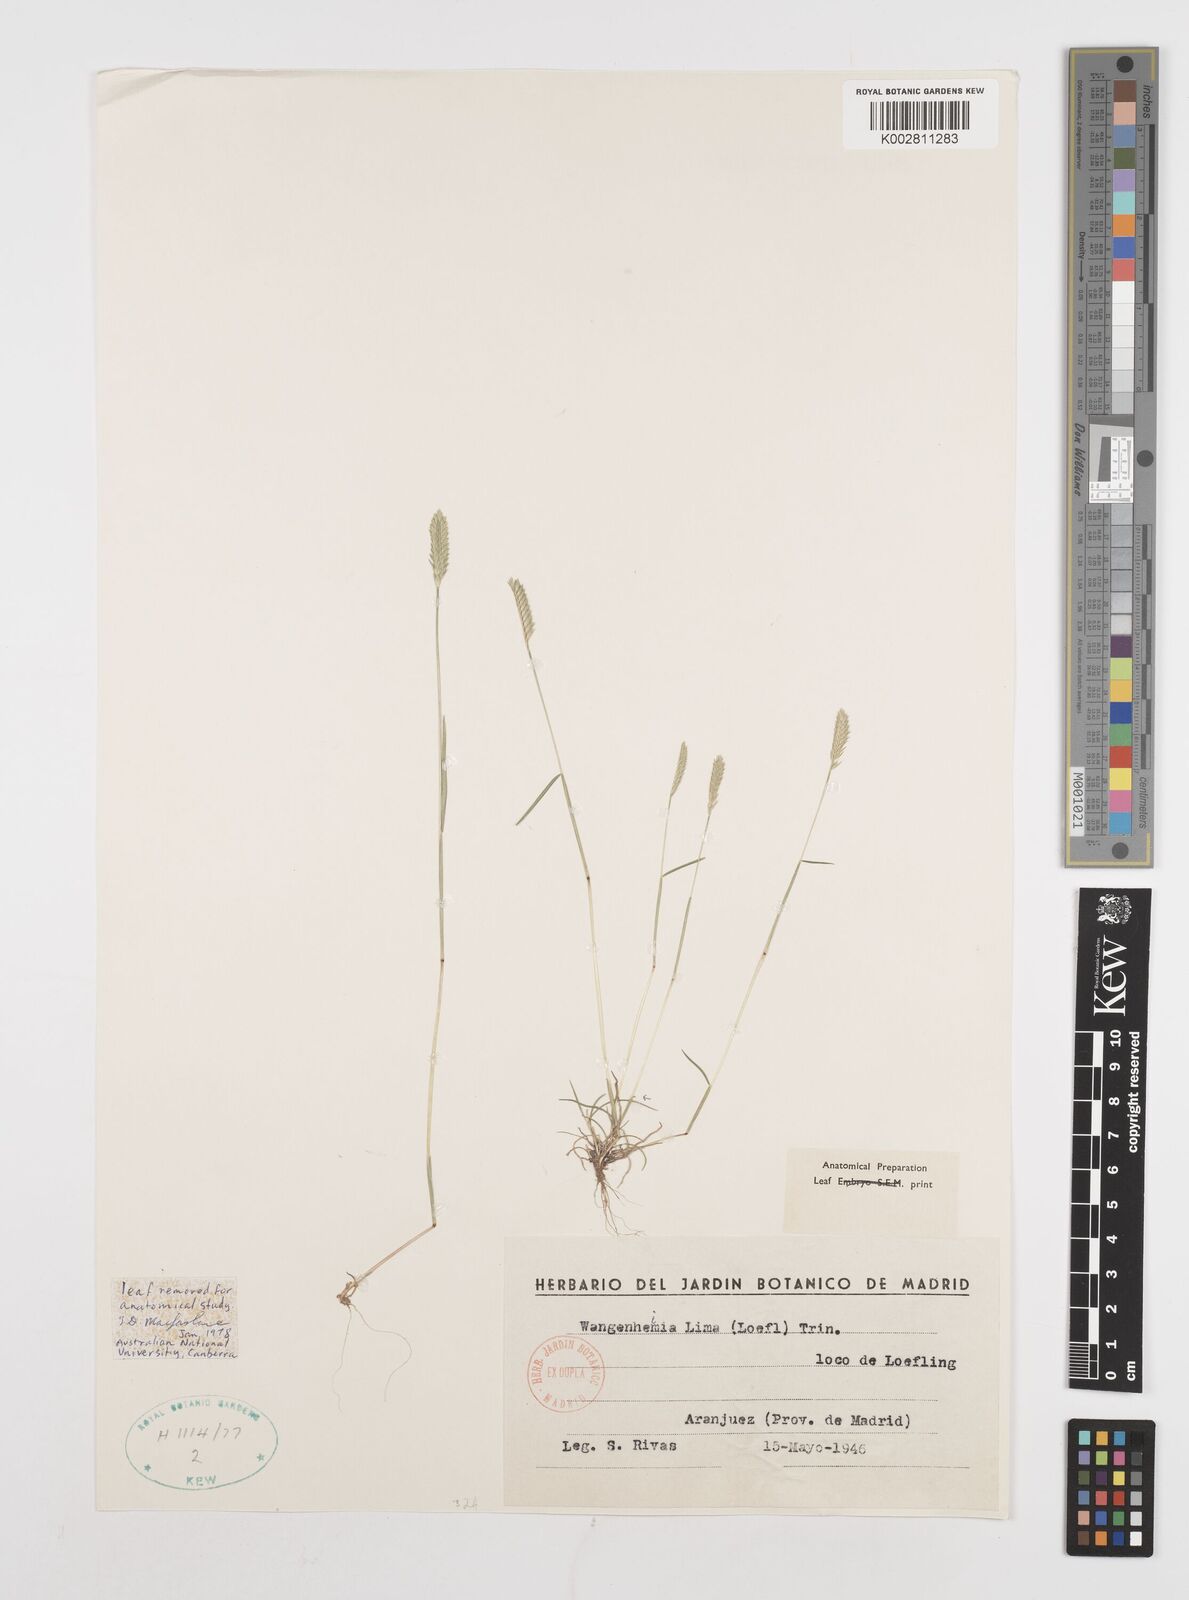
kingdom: Plantae
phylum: Tracheophyta
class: Liliopsida
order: Poales
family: Poaceae
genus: Wangenheimia
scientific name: Wangenheimia lima
